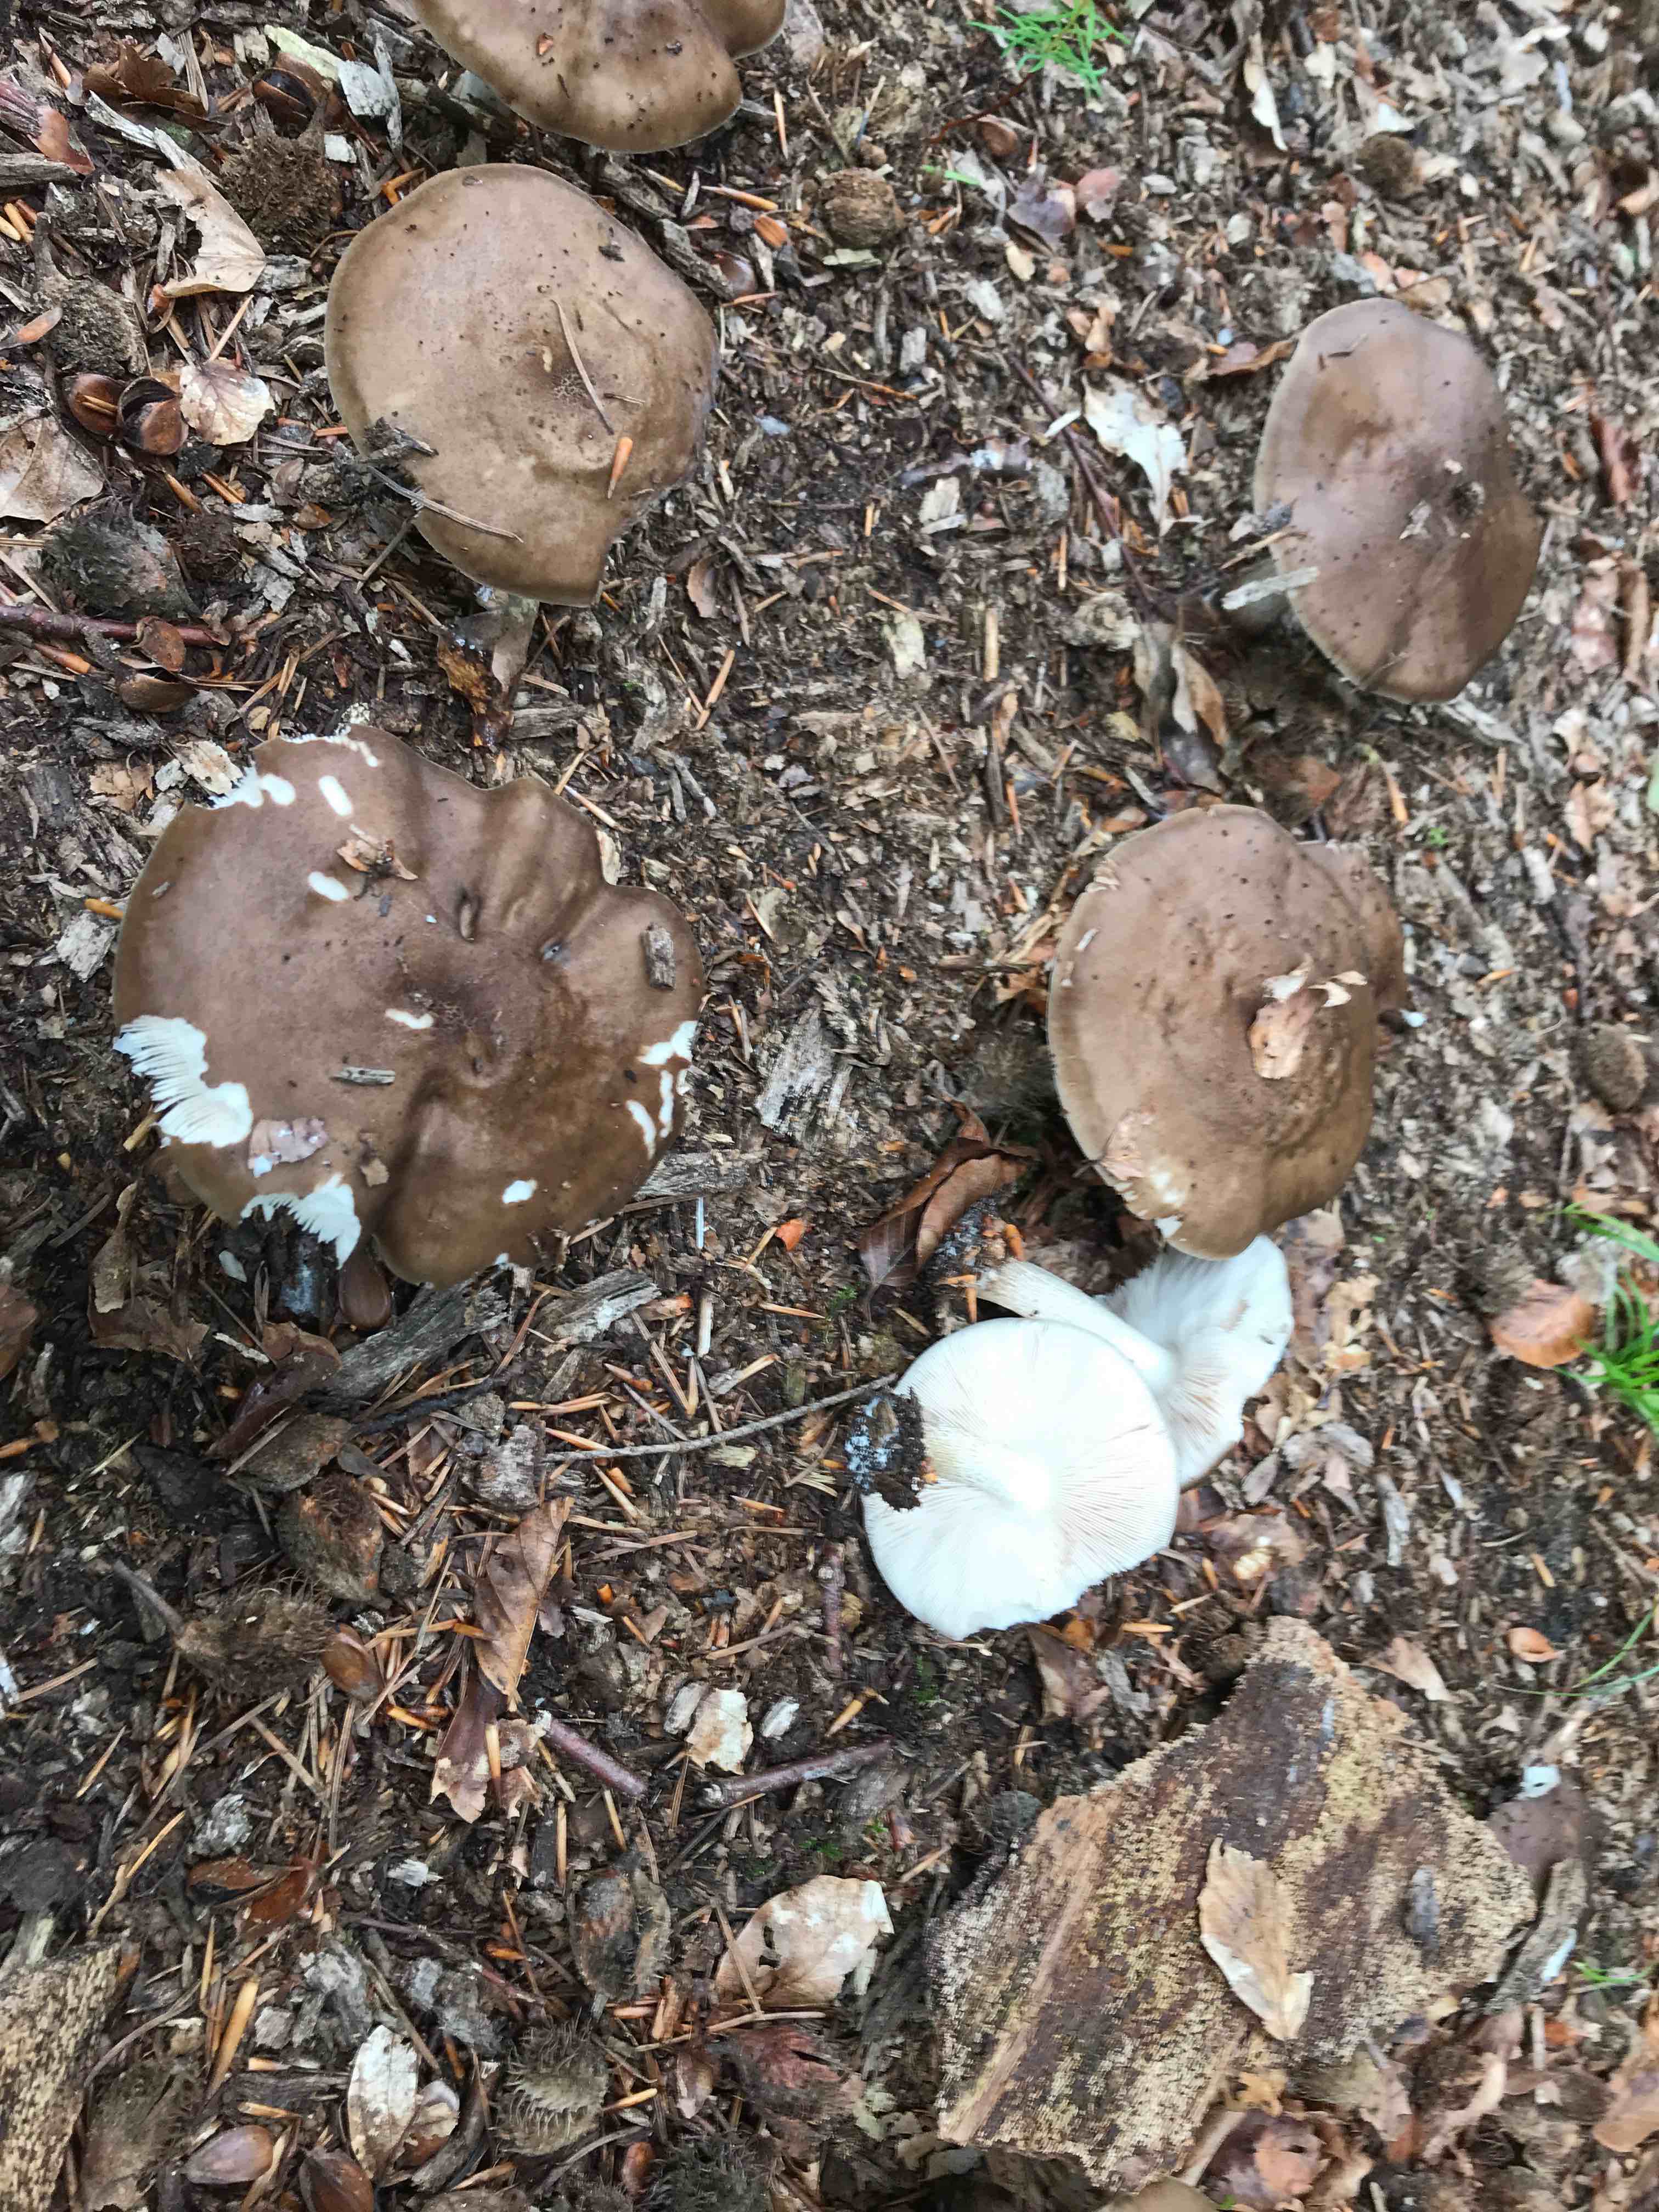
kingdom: Fungi
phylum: Basidiomycota
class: Agaricomycetes
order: Agaricales
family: Pluteaceae
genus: Pluteus
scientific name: Pluteus cervinus
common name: sodfarvet skærmhat
